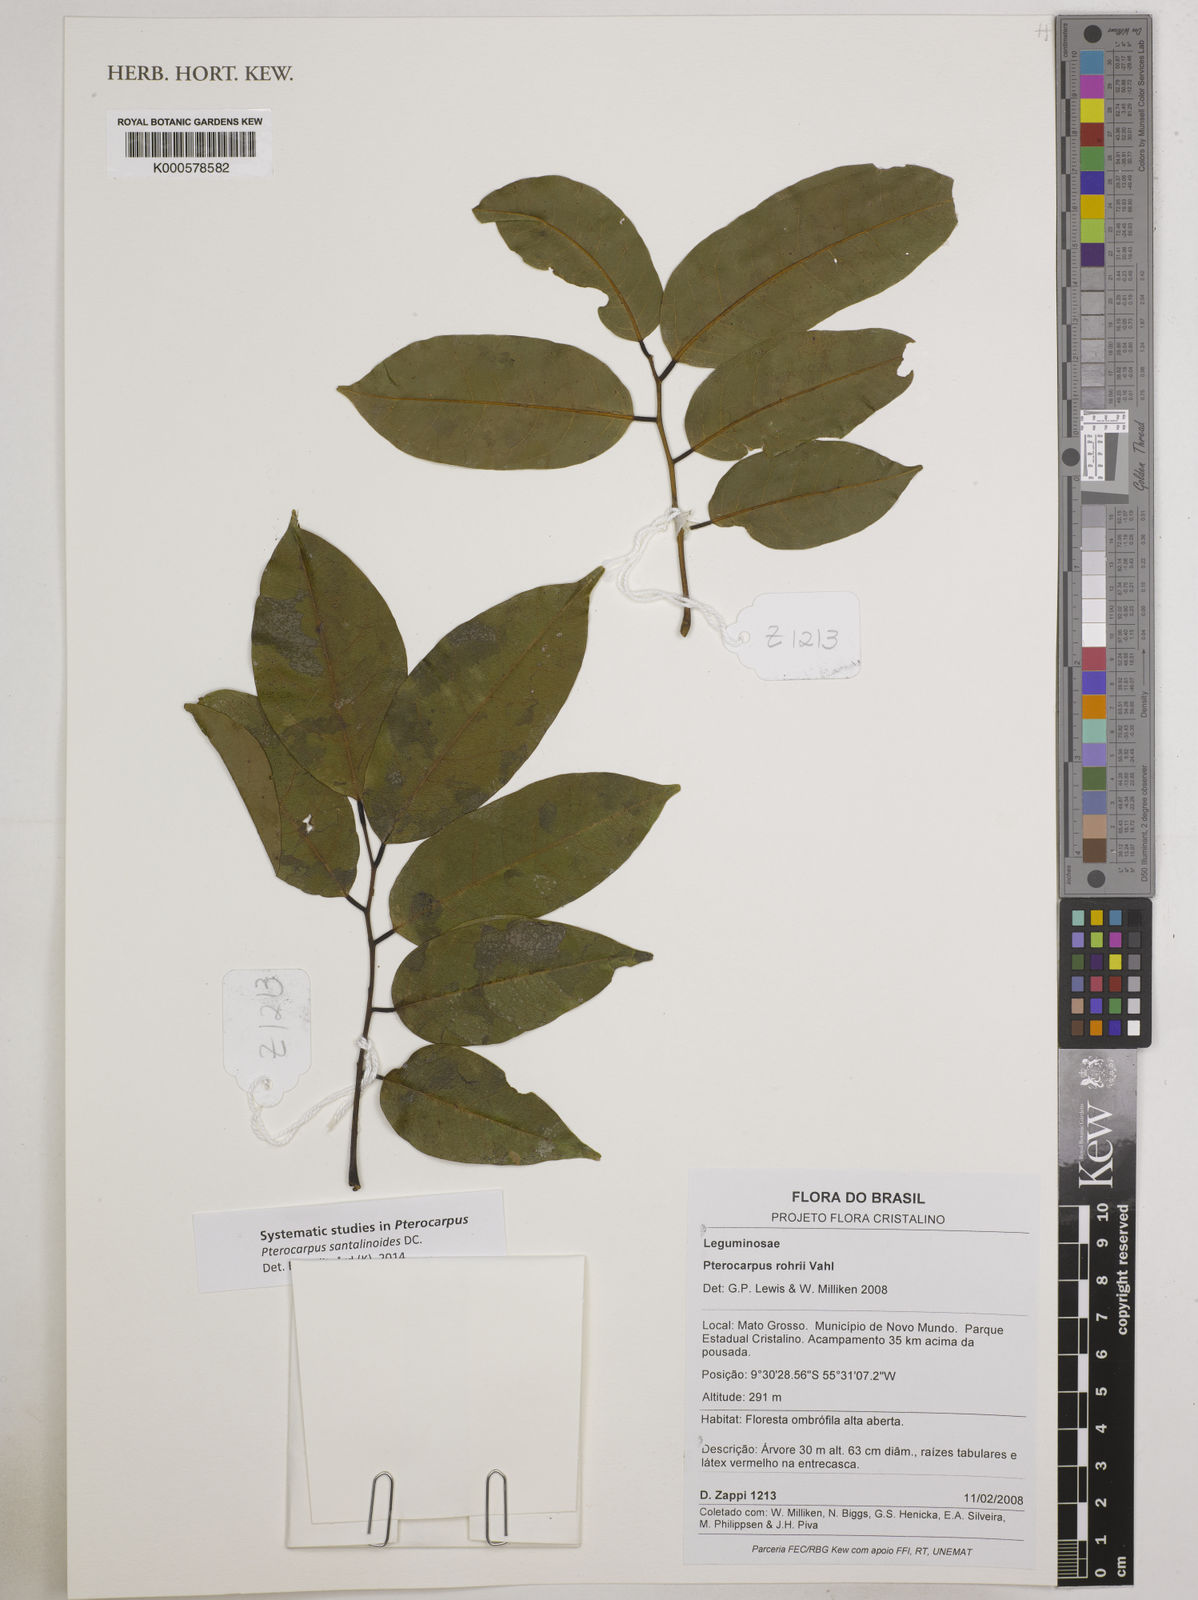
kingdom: Plantae
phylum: Tracheophyta
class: Magnoliopsida
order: Fabales
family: Fabaceae
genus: Pterocarpus
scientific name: Pterocarpus santalinoides
